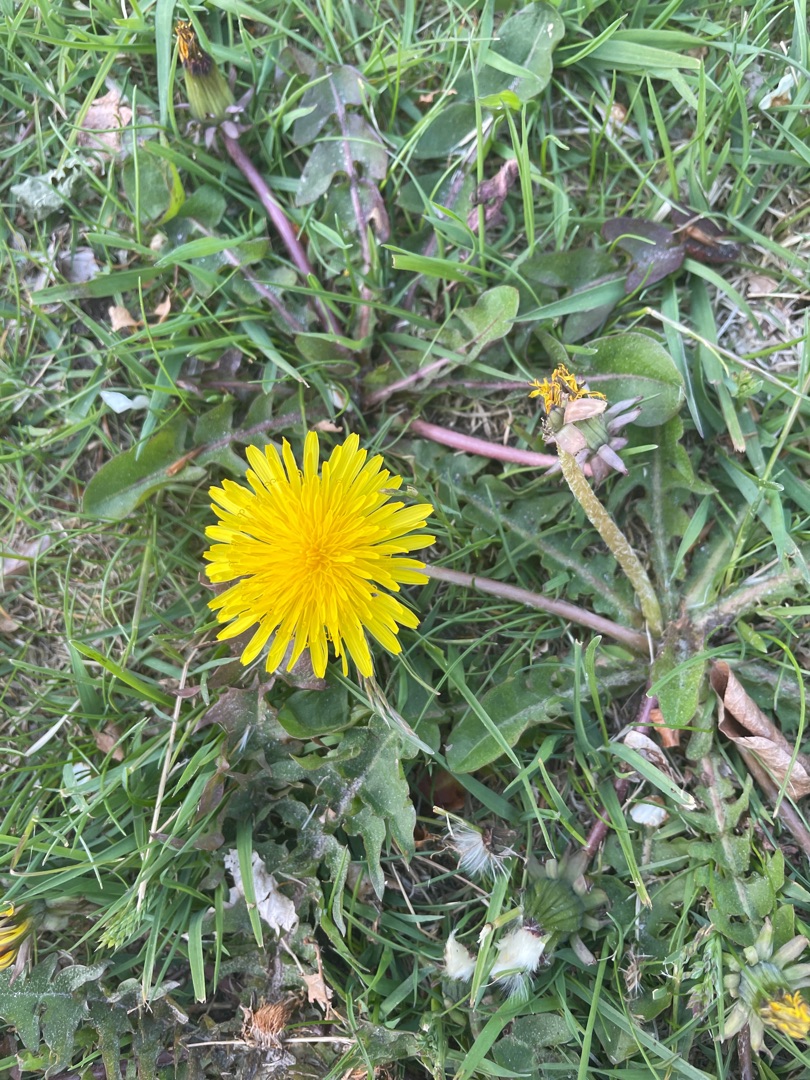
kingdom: Plantae
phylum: Tracheophyta
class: Magnoliopsida
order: Asterales
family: Asteraceae
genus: Taraxacum
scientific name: Taraxacum
